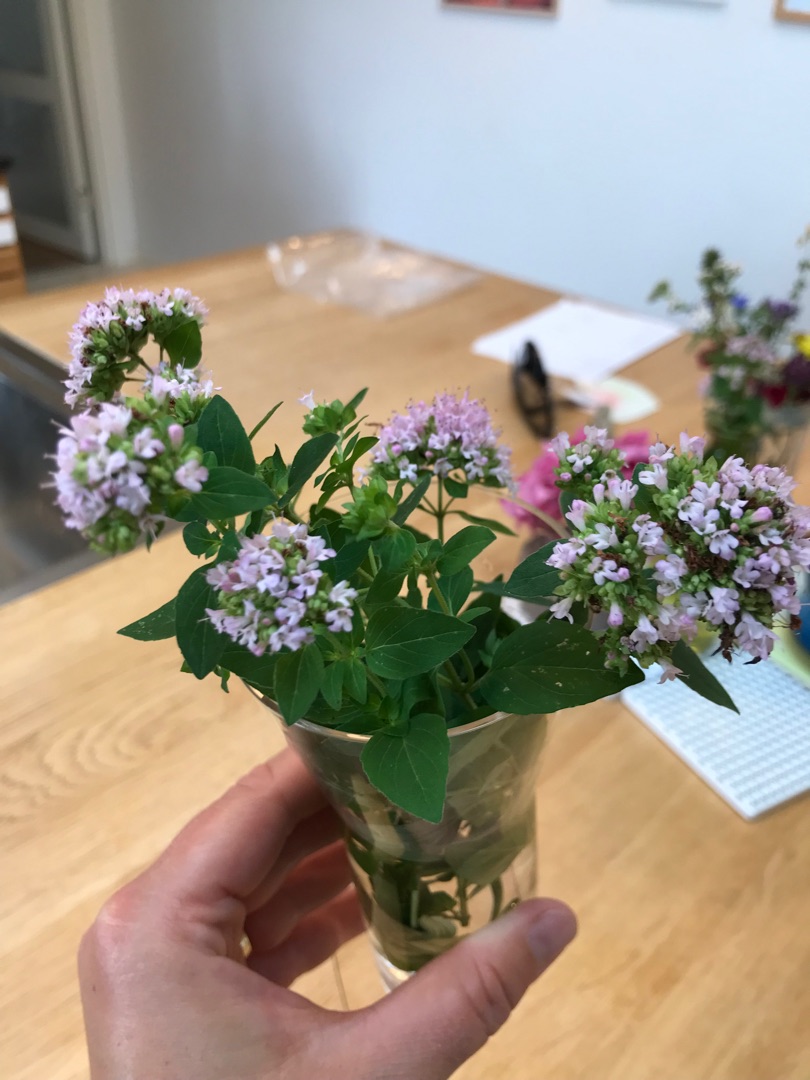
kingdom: Plantae
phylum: Tracheophyta
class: Magnoliopsida
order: Lamiales
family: Lamiaceae
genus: Origanum
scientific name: Origanum vulgare
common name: Merian
